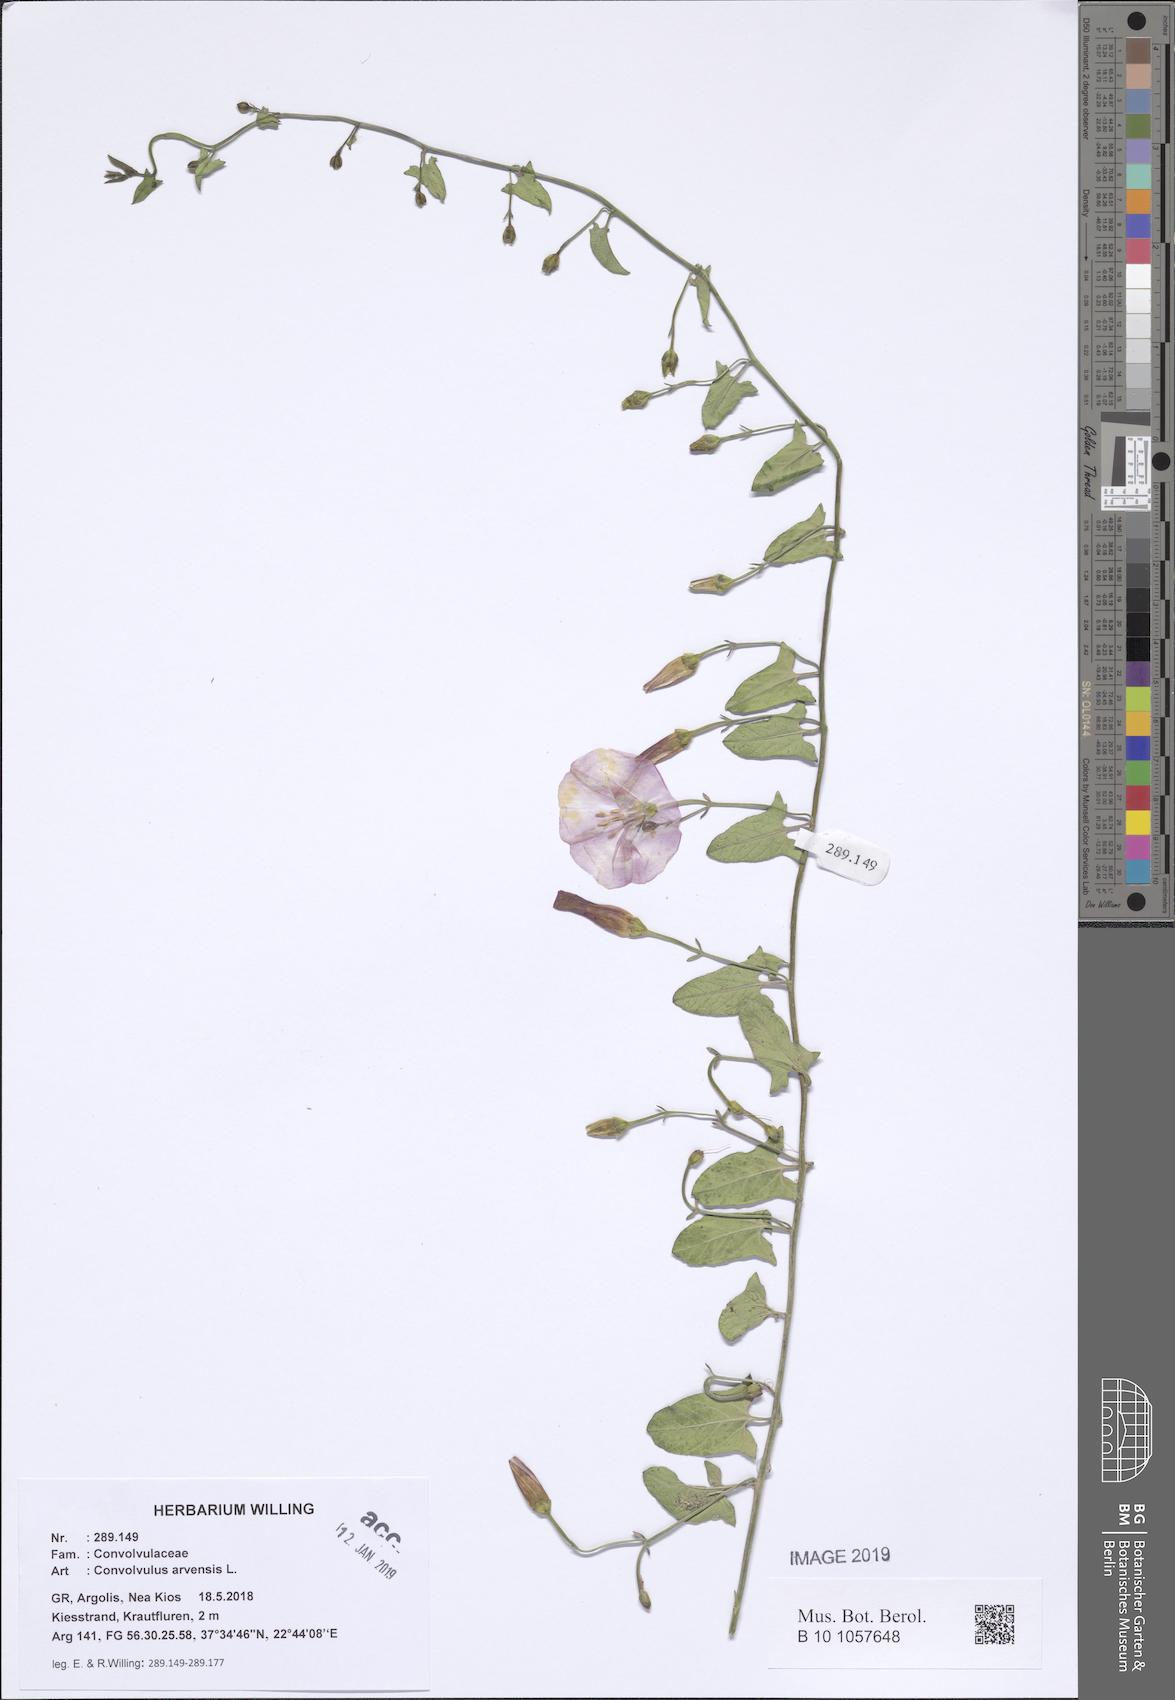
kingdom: Plantae
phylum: Tracheophyta
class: Magnoliopsida
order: Solanales
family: Convolvulaceae
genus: Convolvulus
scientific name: Convolvulus arvensis
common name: Field bindweed
